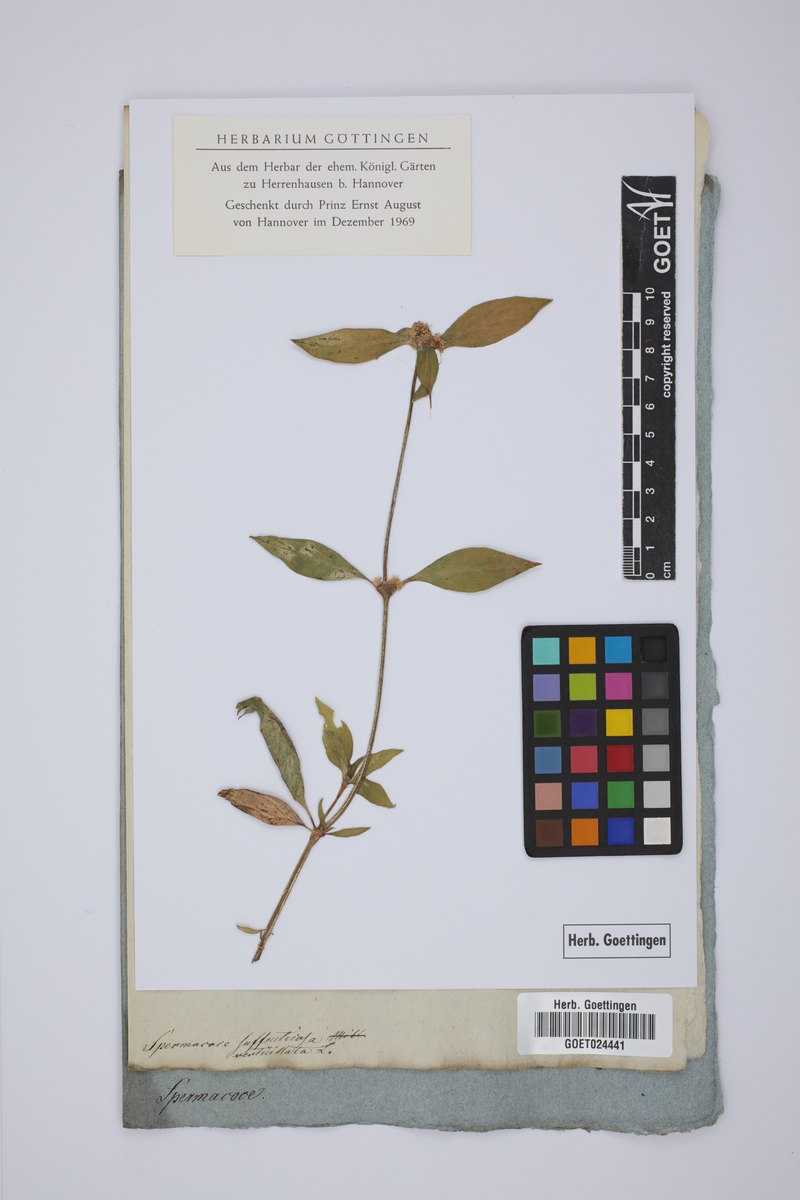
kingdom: Plantae
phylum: Tracheophyta
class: Magnoliopsida
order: Gentianales
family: Rubiaceae
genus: Spermacoce
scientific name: Spermacoce verticillata
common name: Shrubby false buttonweed
